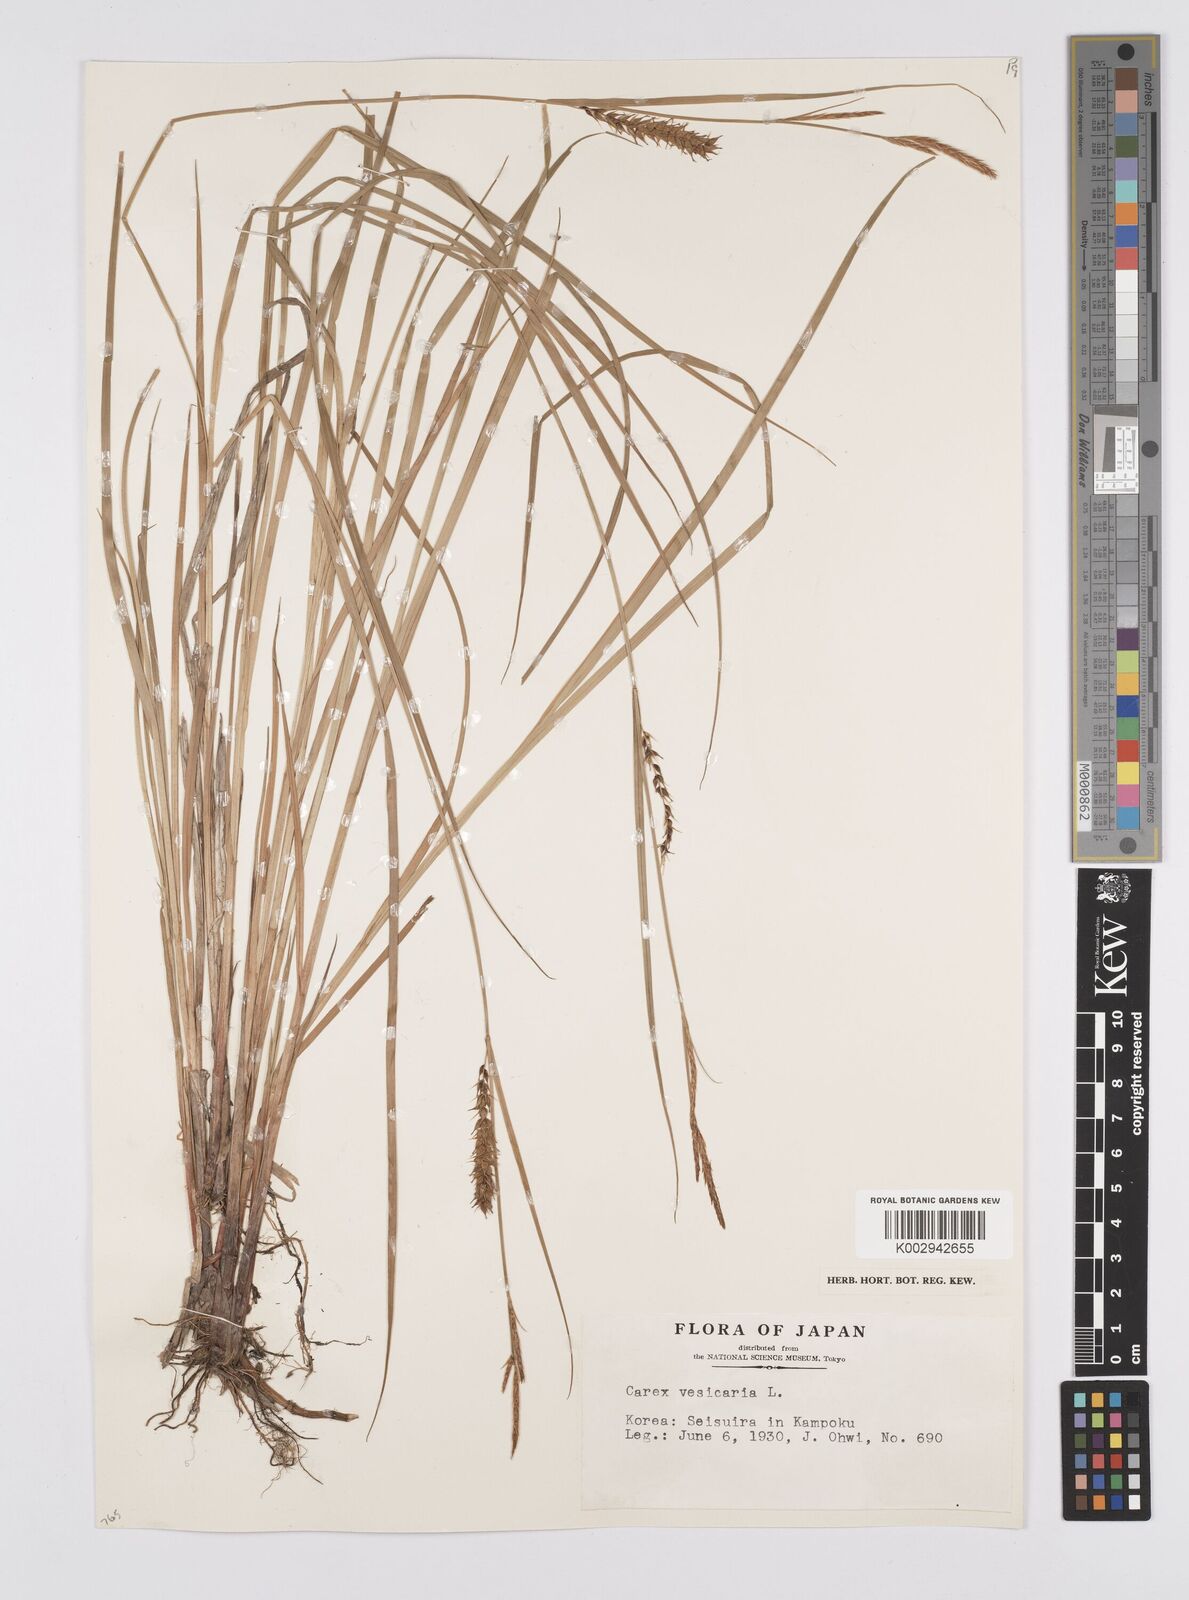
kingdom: Plantae
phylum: Tracheophyta
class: Liliopsida
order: Poales
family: Cyperaceae
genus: Carex
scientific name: Carex vesicaria
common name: Bladder-sedge
